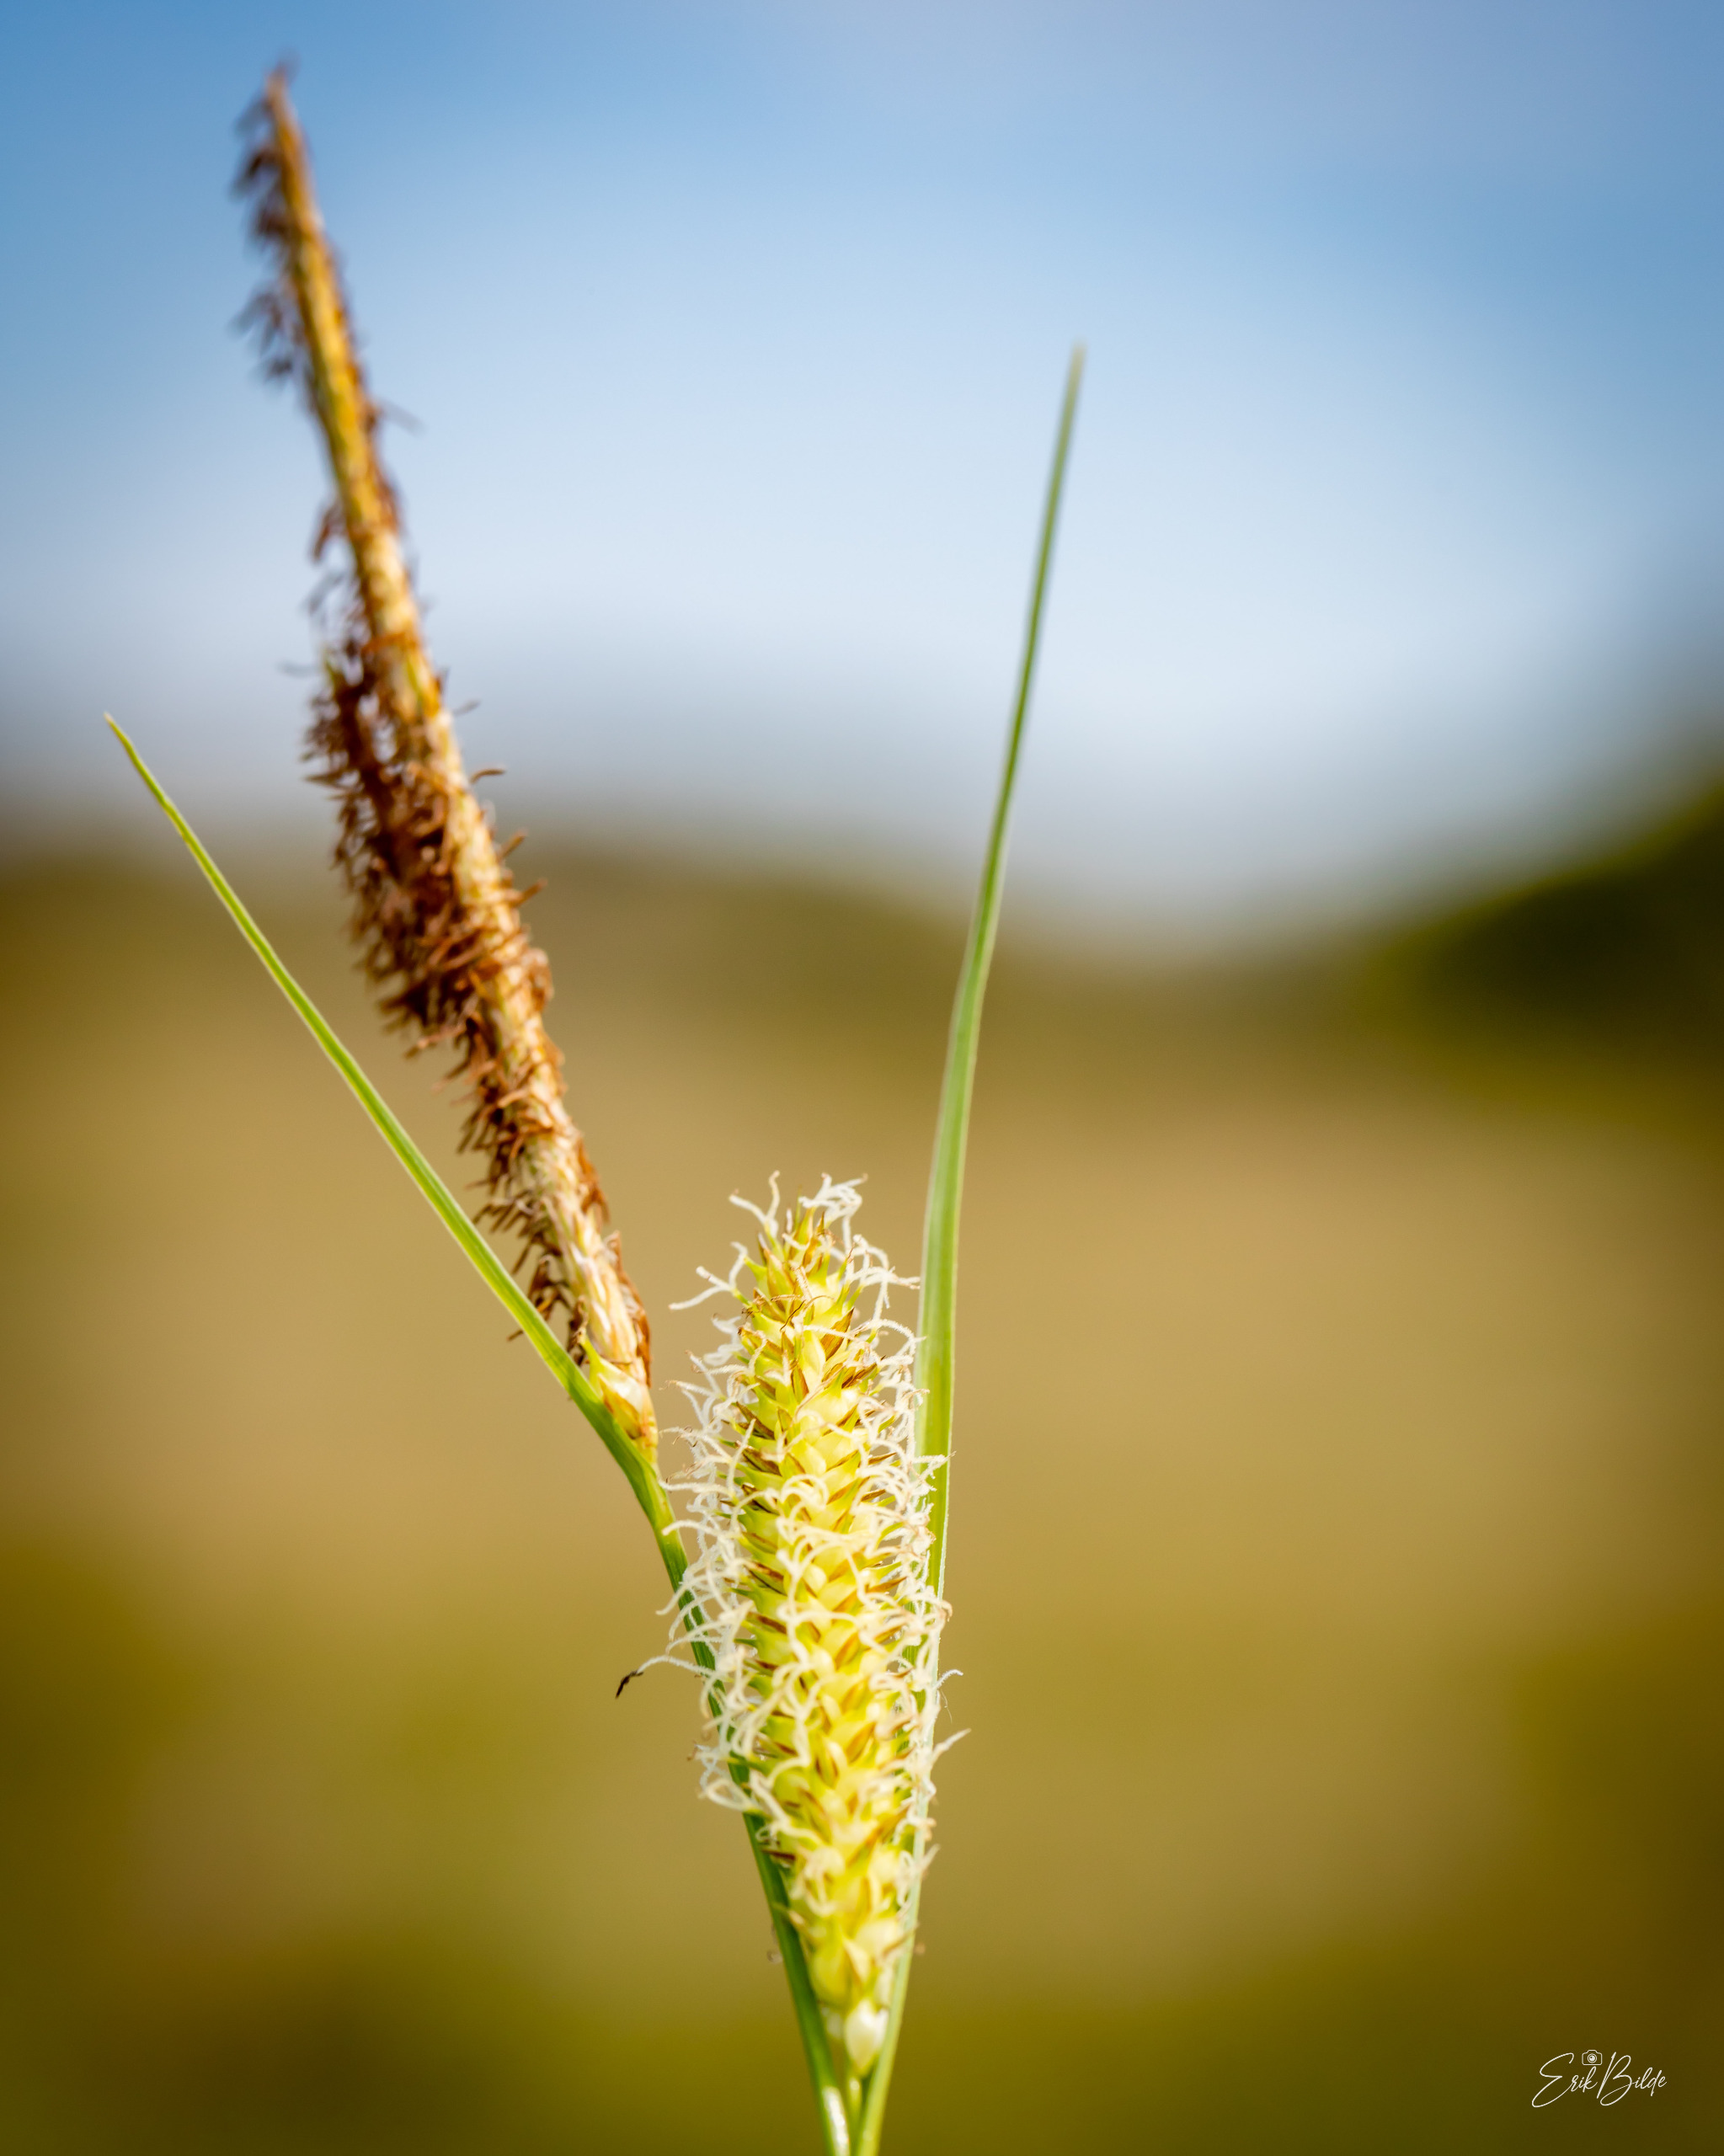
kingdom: Plantae
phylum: Tracheophyta
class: Liliopsida
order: Poales
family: Cyperaceae
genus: Carex
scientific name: Carex rostrata
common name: Næb-star
